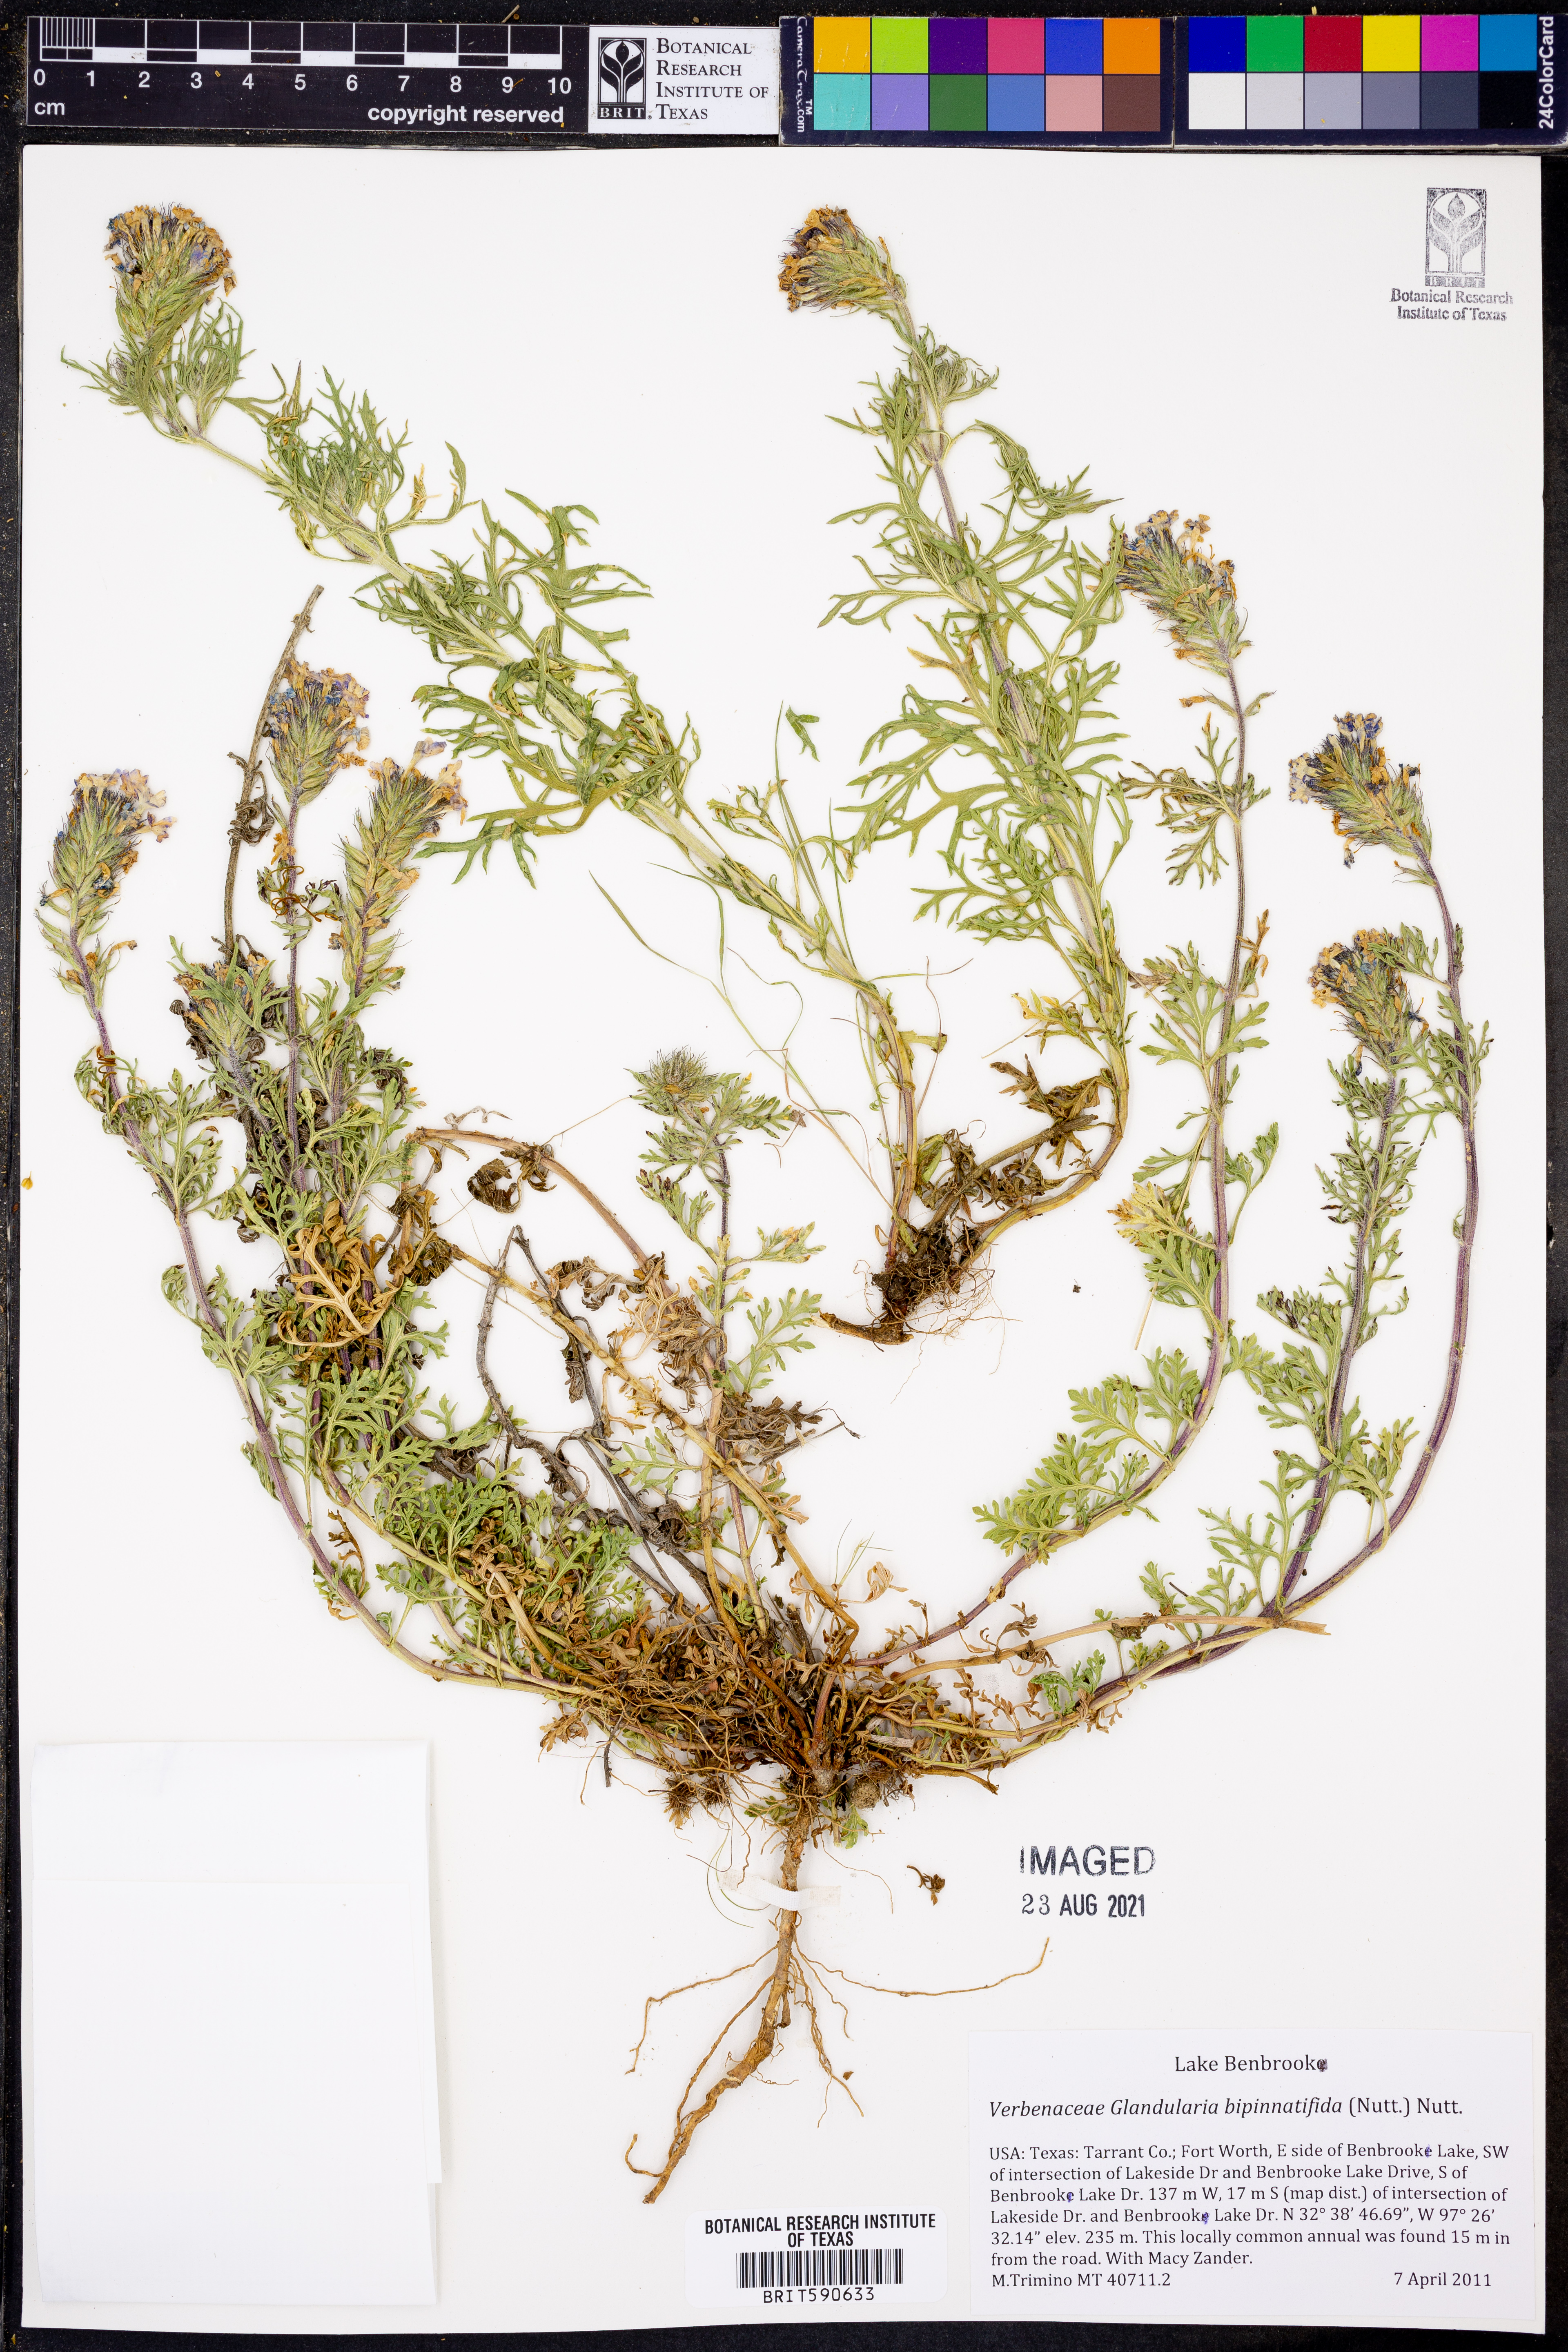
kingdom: Plantae
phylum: Tracheophyta
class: Magnoliopsida
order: Lamiales
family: Verbenaceae
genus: Verbena
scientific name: Verbena bipinnatifida
